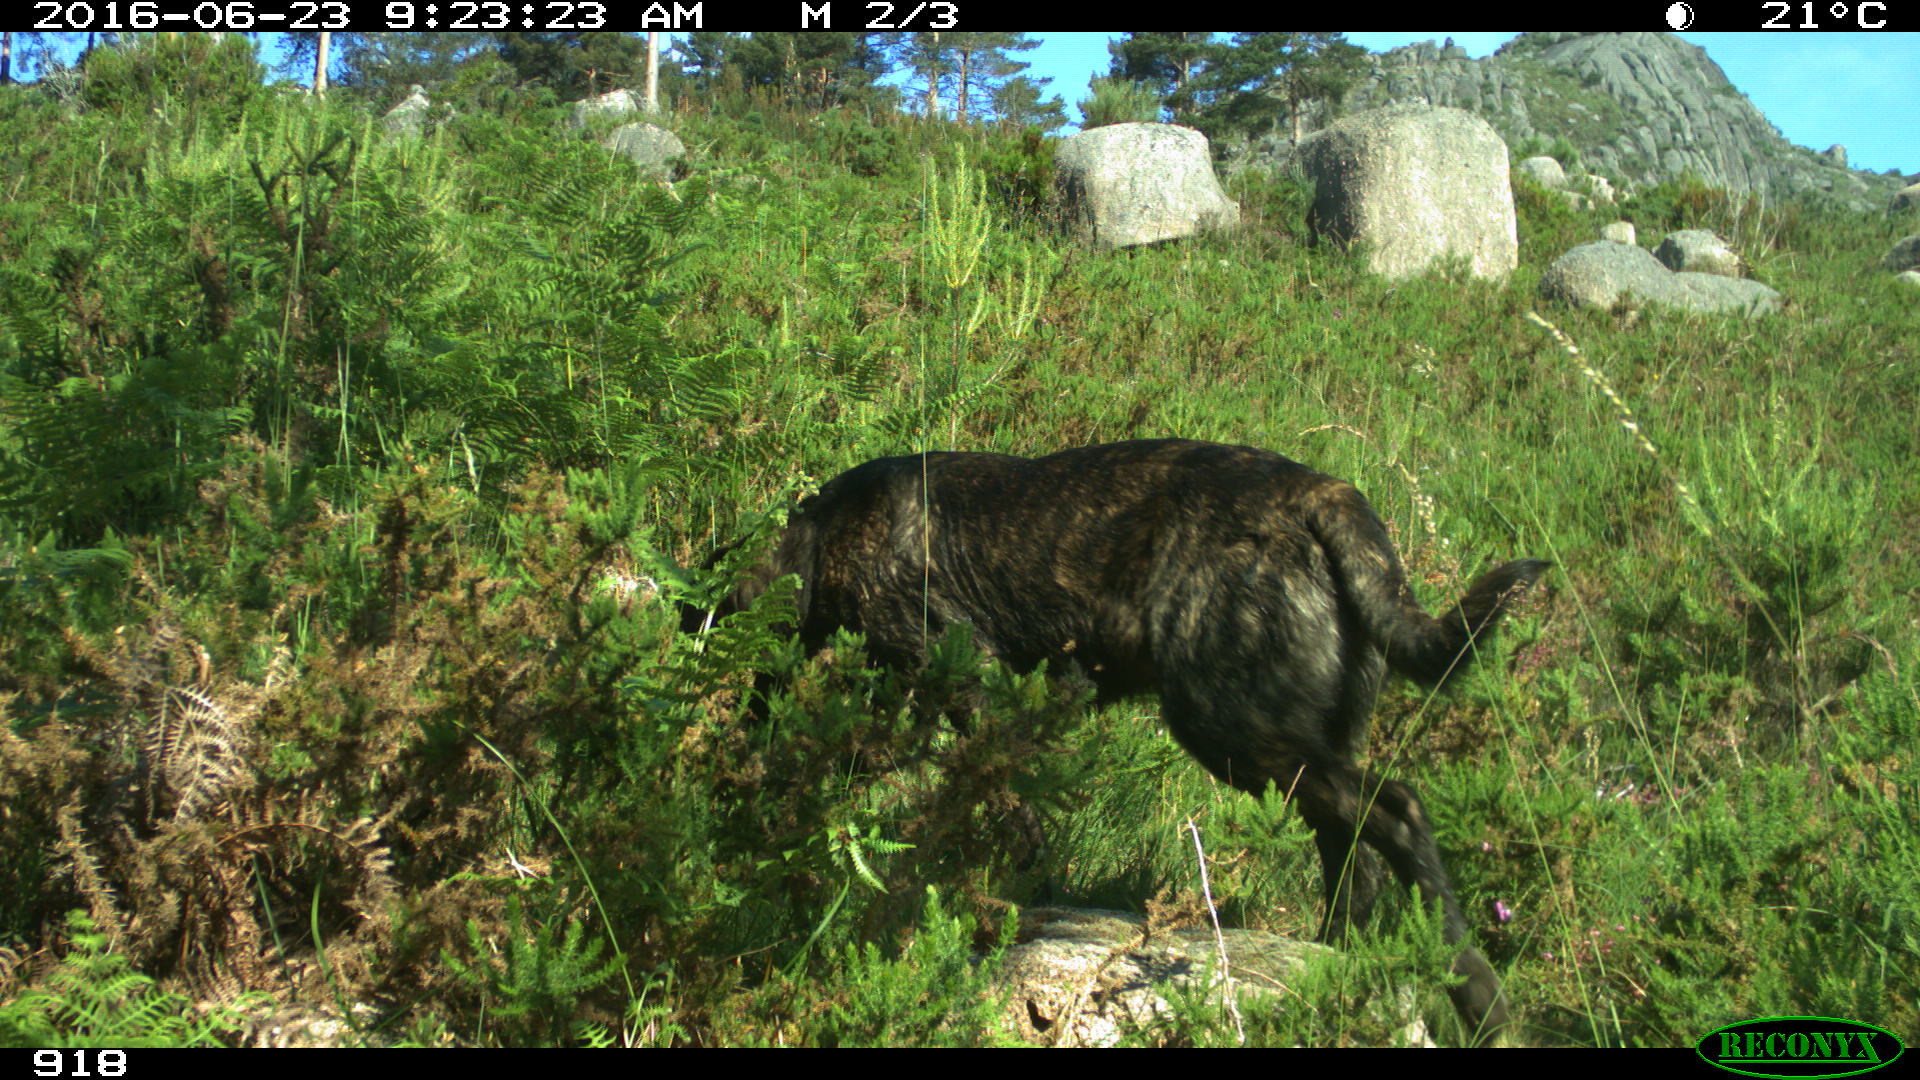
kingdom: Animalia
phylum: Chordata
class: Mammalia
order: Carnivora
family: Canidae
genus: Canis
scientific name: Canis lupus
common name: Gray wolf
